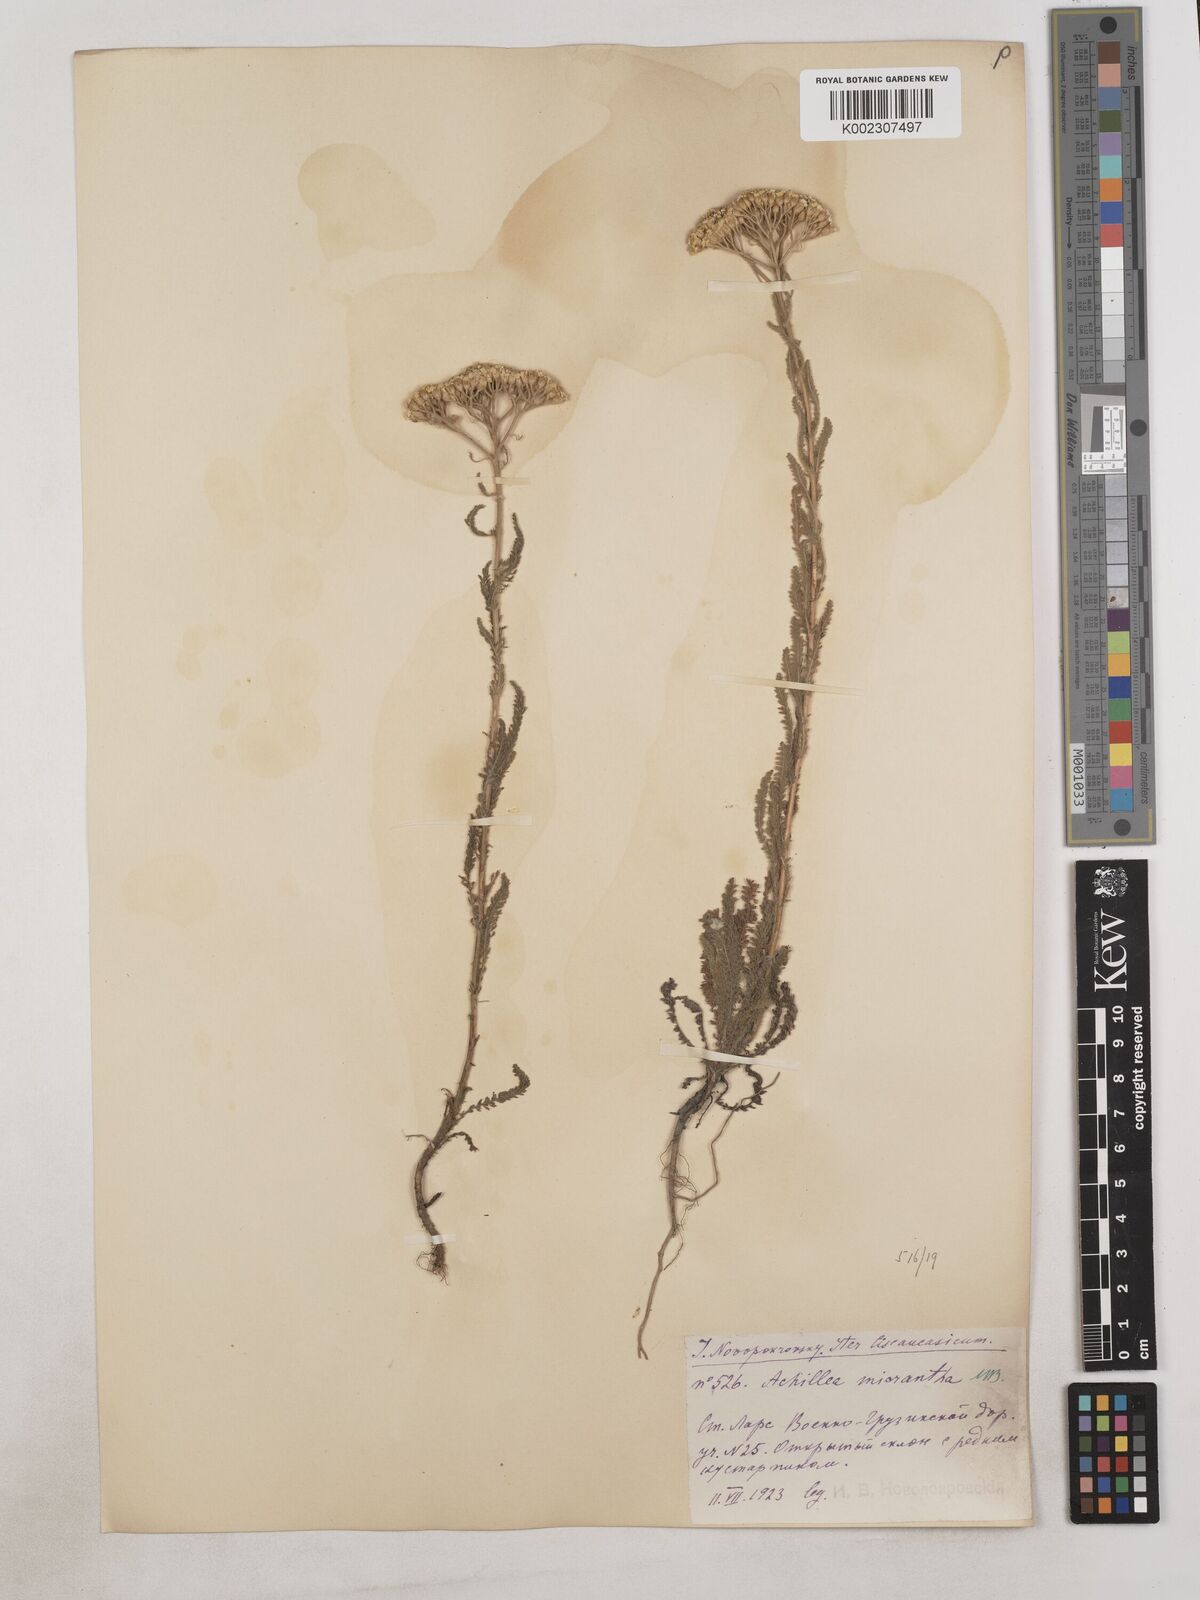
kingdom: Plantae
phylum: Tracheophyta
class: Magnoliopsida
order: Asterales
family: Asteraceae
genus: Achillea
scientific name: Achillea arabica
